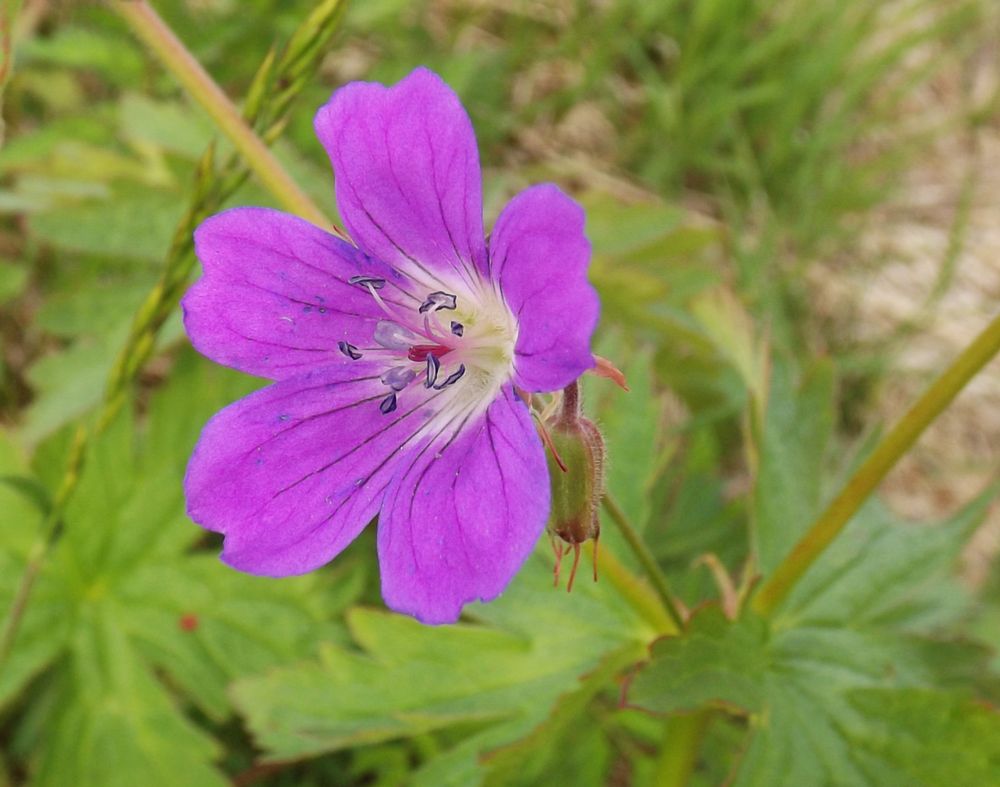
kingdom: Plantae
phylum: Tracheophyta
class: Magnoliopsida
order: Geraniales
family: Geraniaceae
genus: Geranium
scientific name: Geranium sylvaticum
